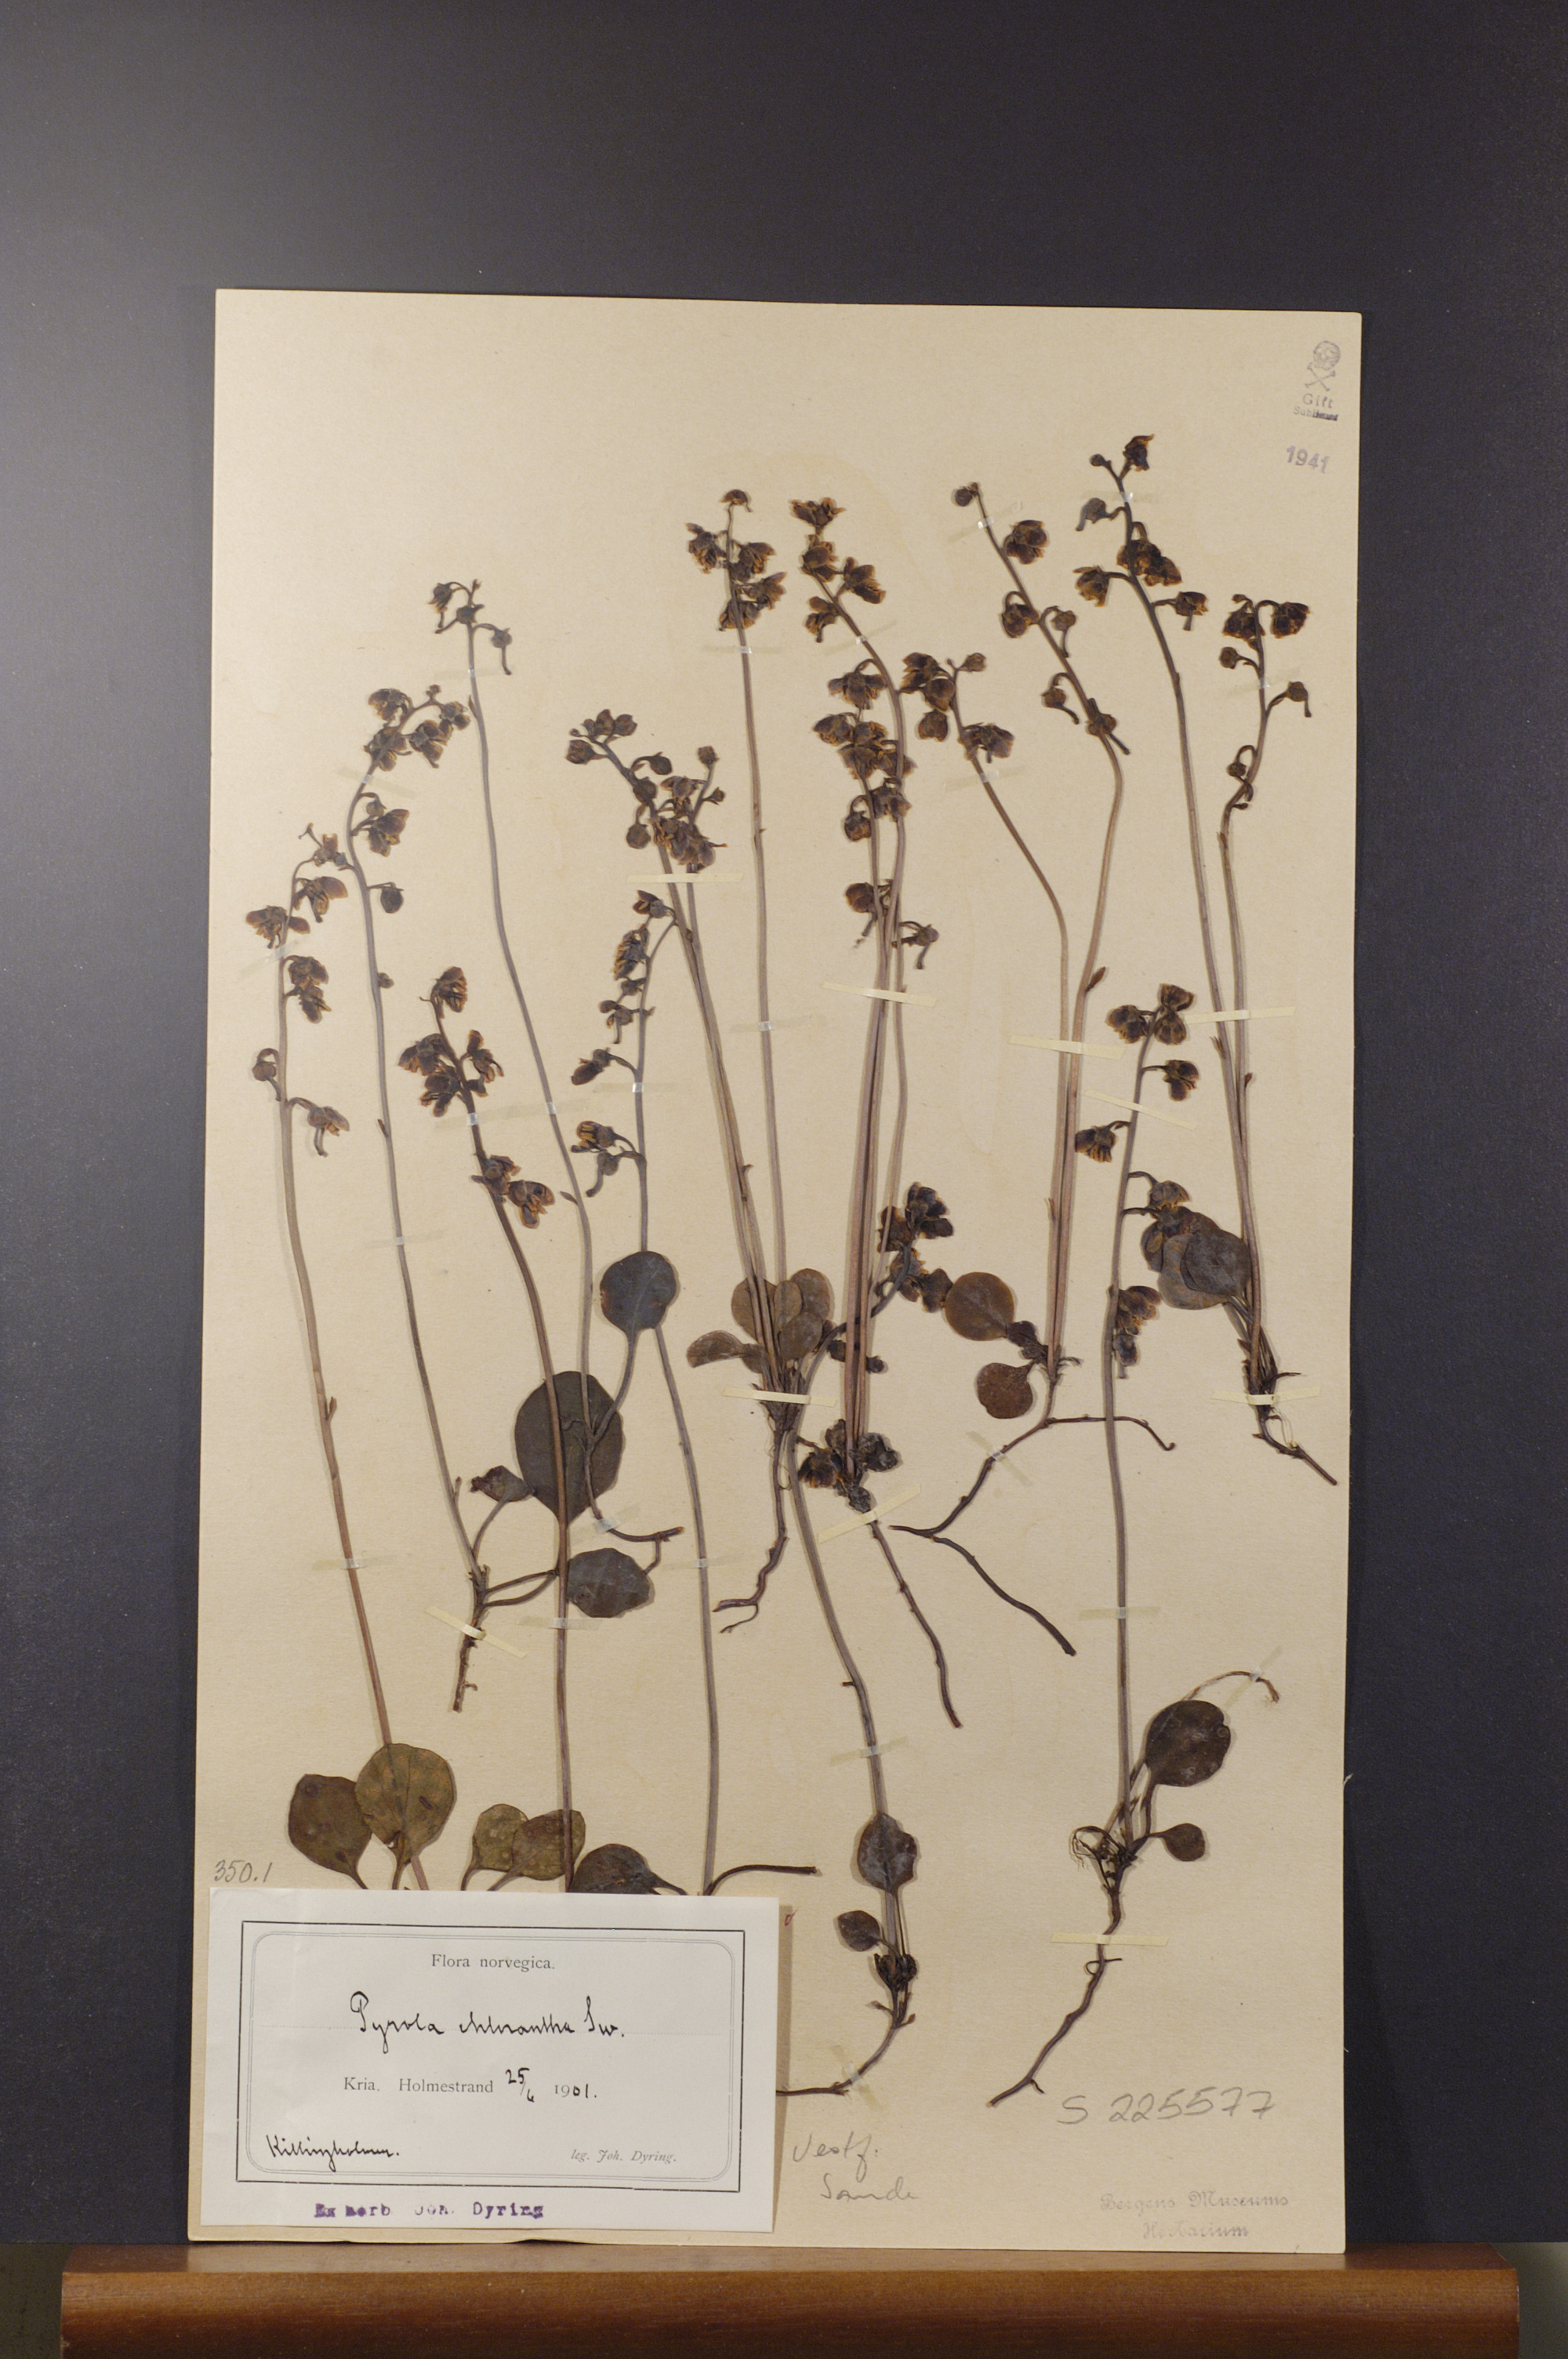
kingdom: Plantae
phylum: Tracheophyta
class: Magnoliopsida
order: Ericales
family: Ericaceae
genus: Pyrola
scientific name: Pyrola chlorantha
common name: Green wintergreen
